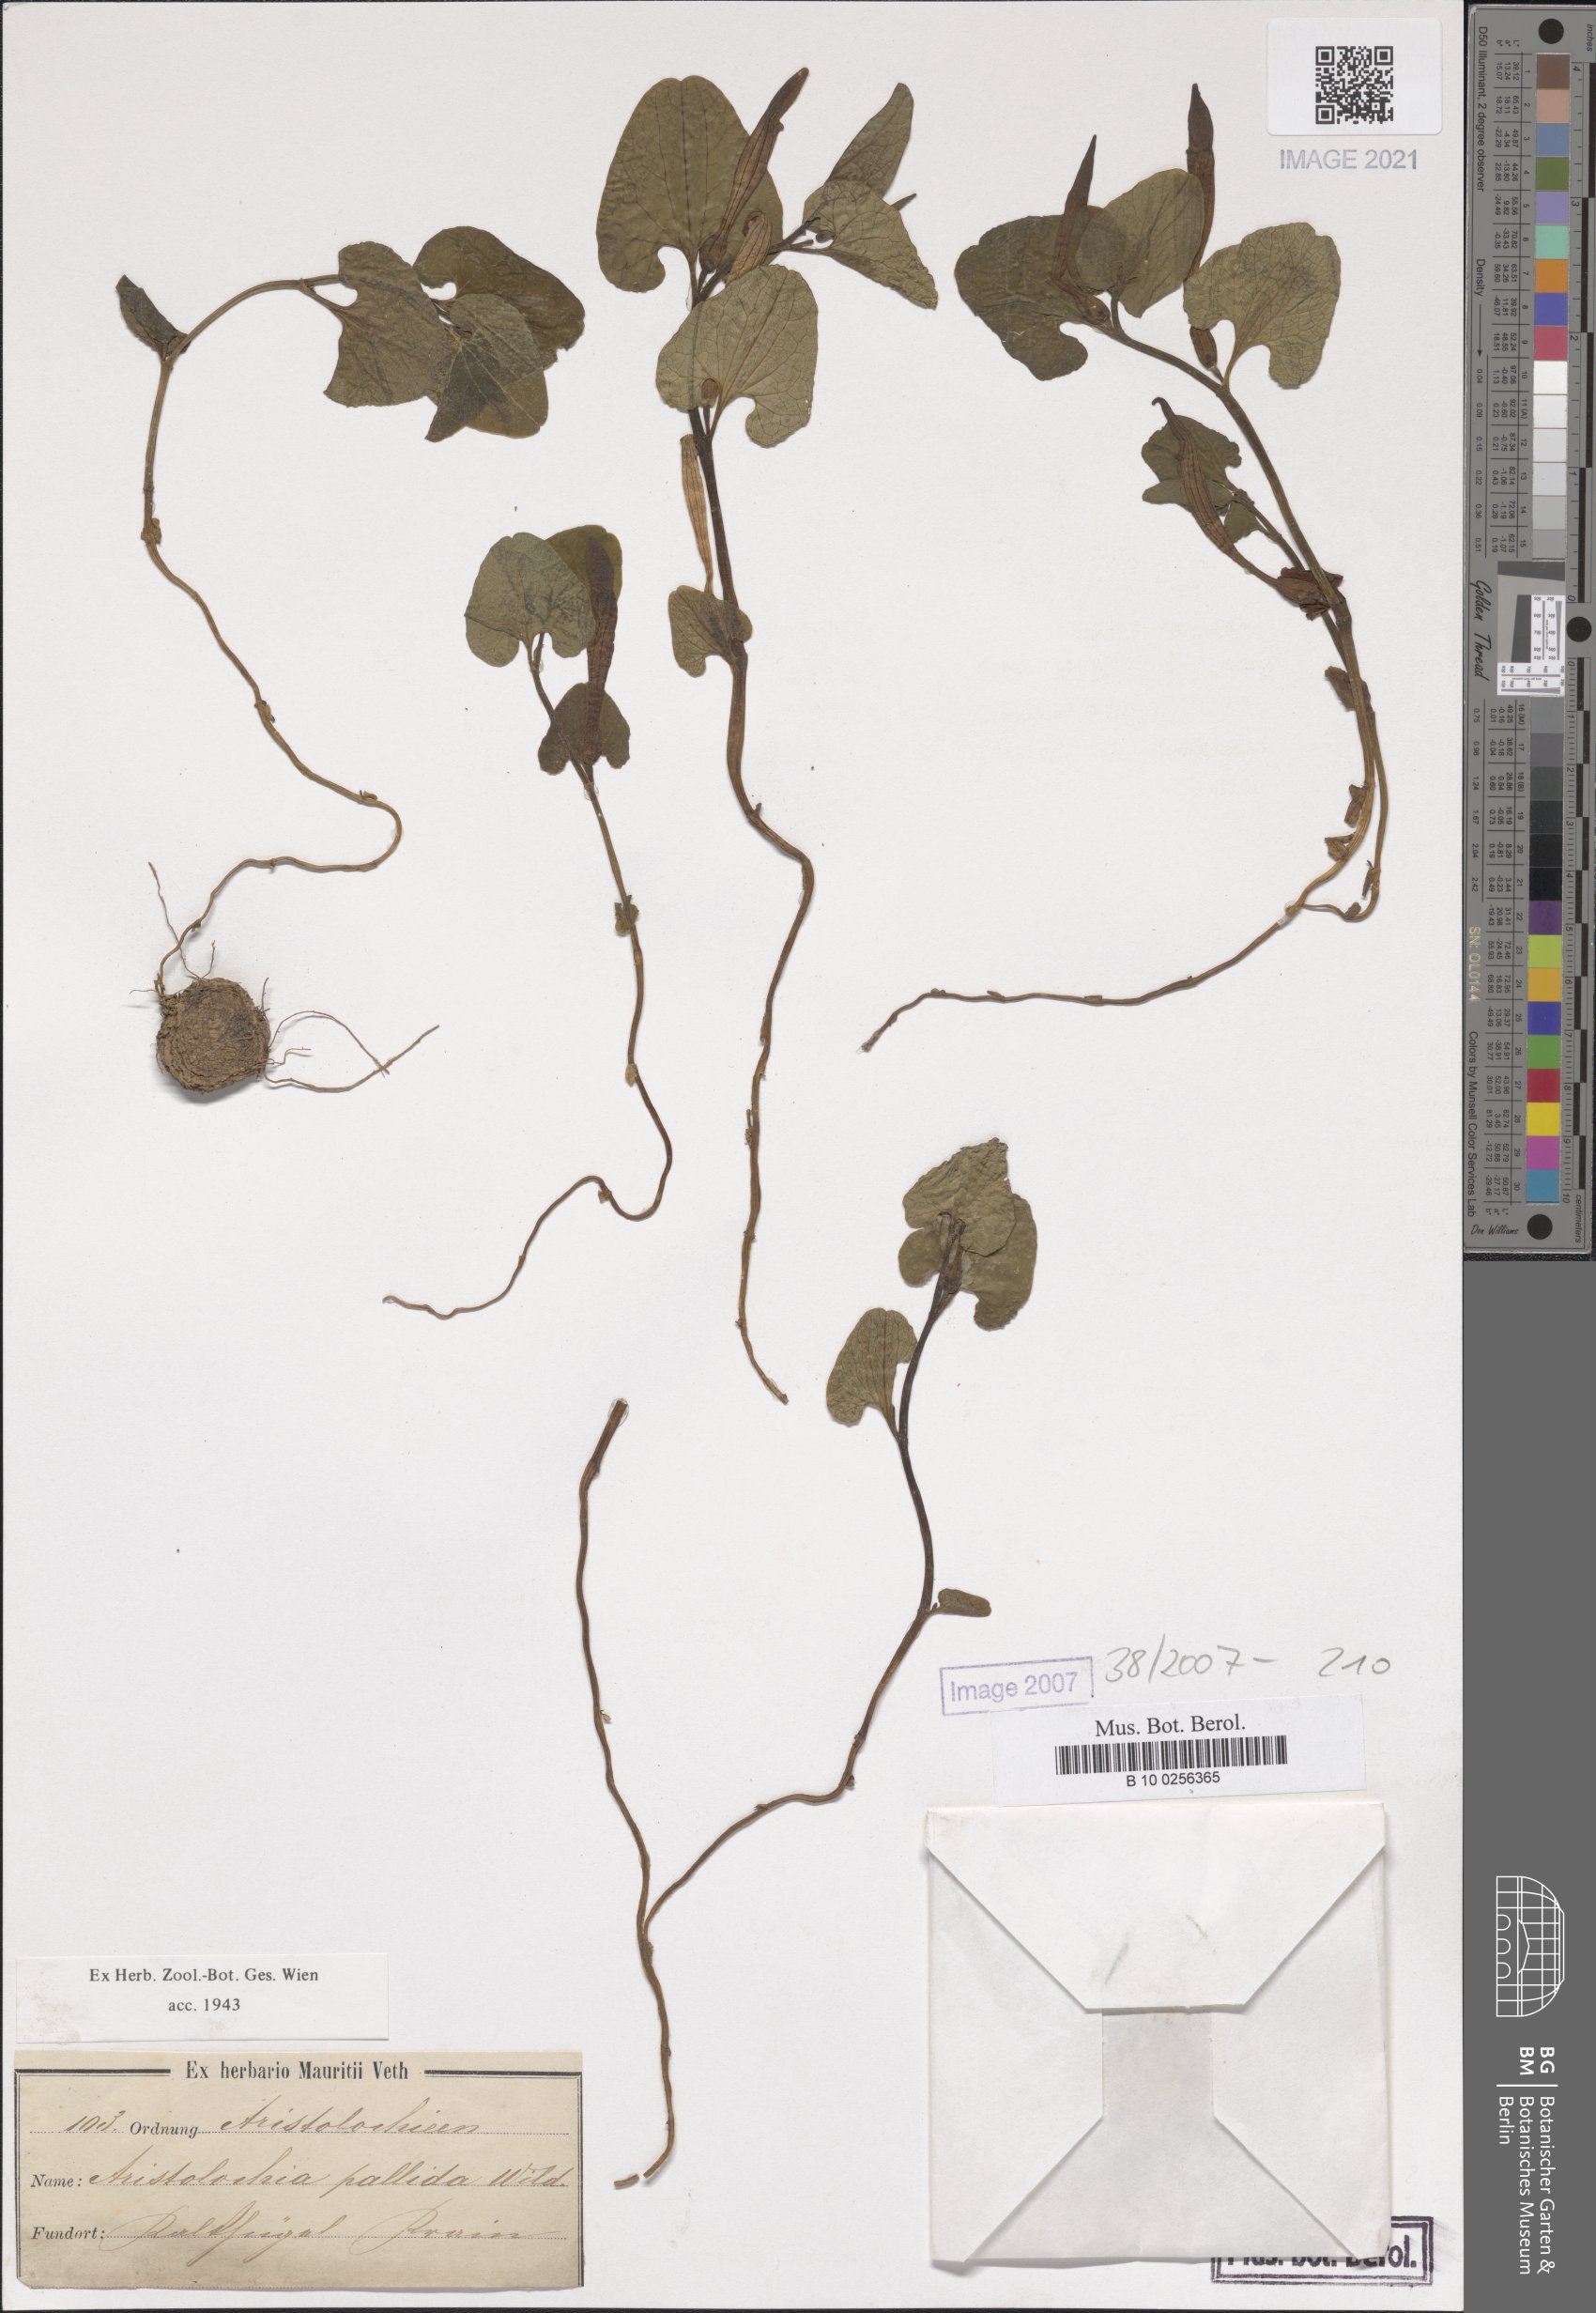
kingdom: Plantae
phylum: Tracheophyta
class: Magnoliopsida
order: Piperales
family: Aristolochiaceae
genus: Aristolochia
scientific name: Aristolochia pallida
